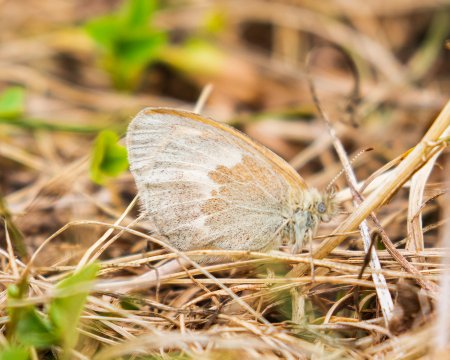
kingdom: Animalia
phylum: Arthropoda
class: Insecta
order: Lepidoptera
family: Nymphalidae
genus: Coenonympha
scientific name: Coenonympha tullia
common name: Large Heath
